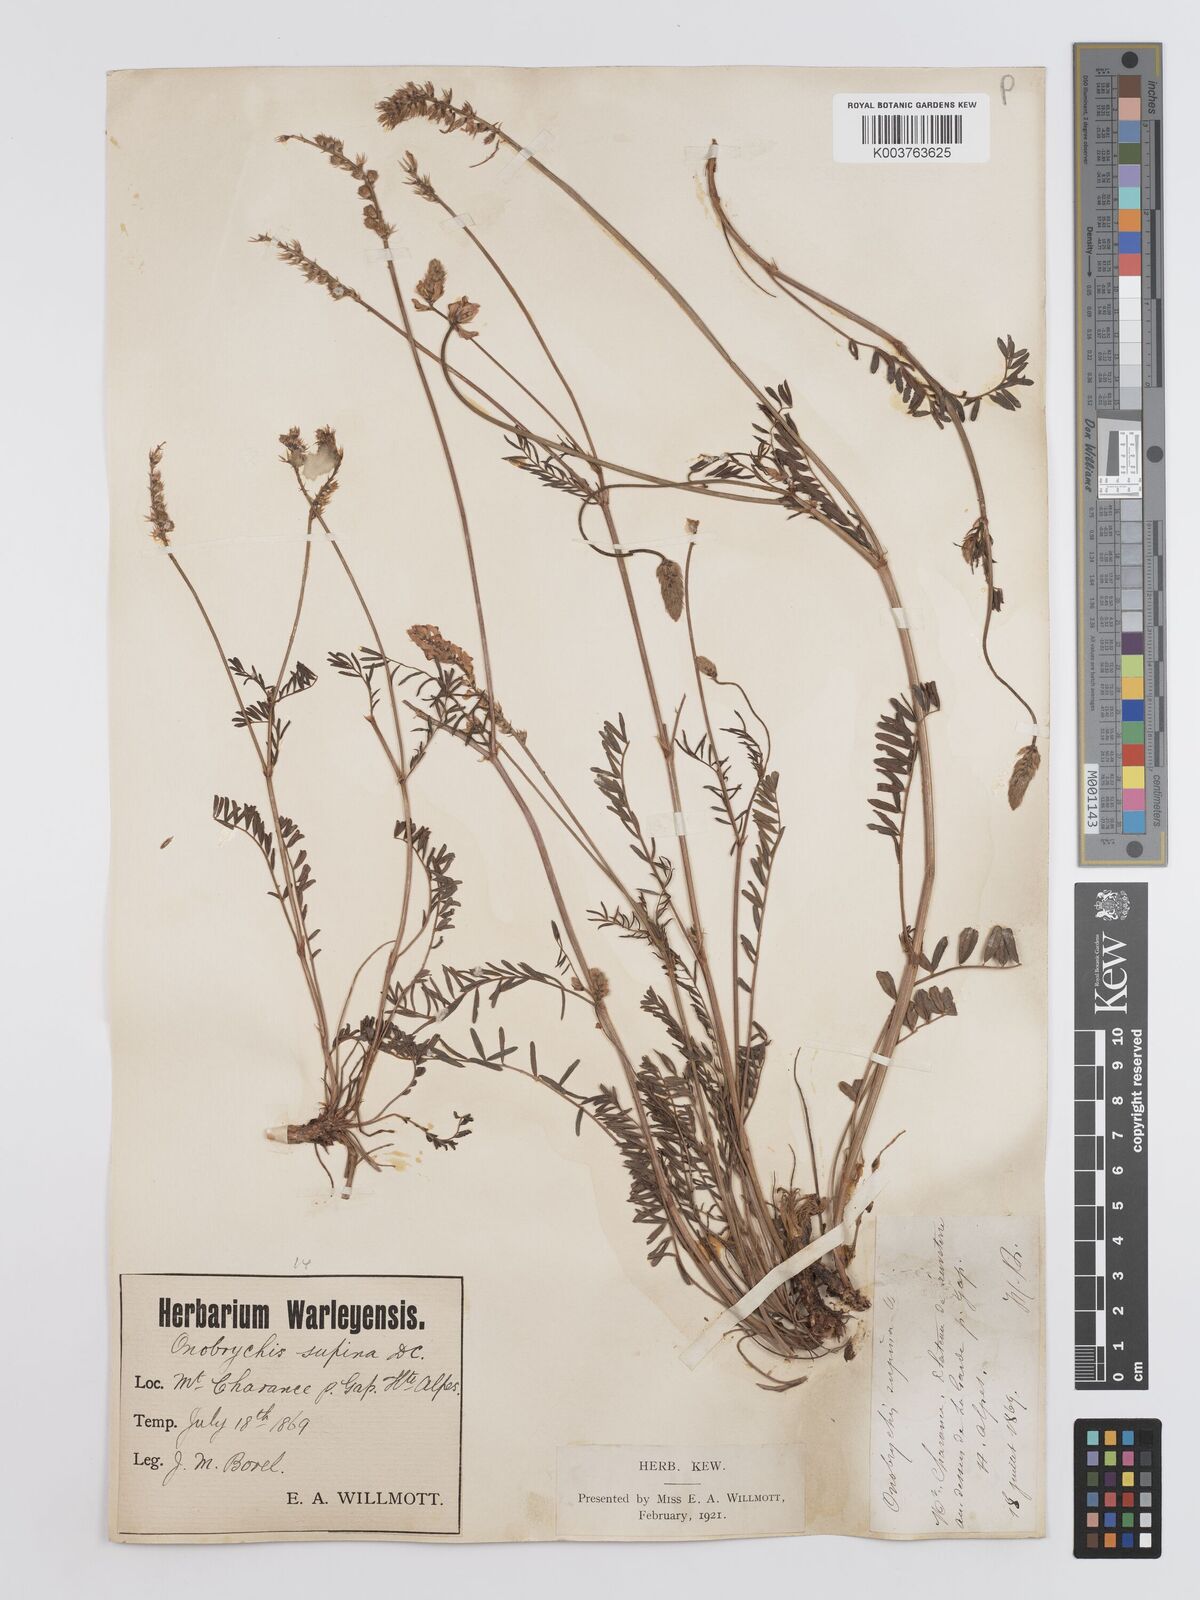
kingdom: Plantae
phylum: Tracheophyta
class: Magnoliopsida
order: Fabales
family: Fabaceae
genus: Onobrychis
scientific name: Onobrychis supina
